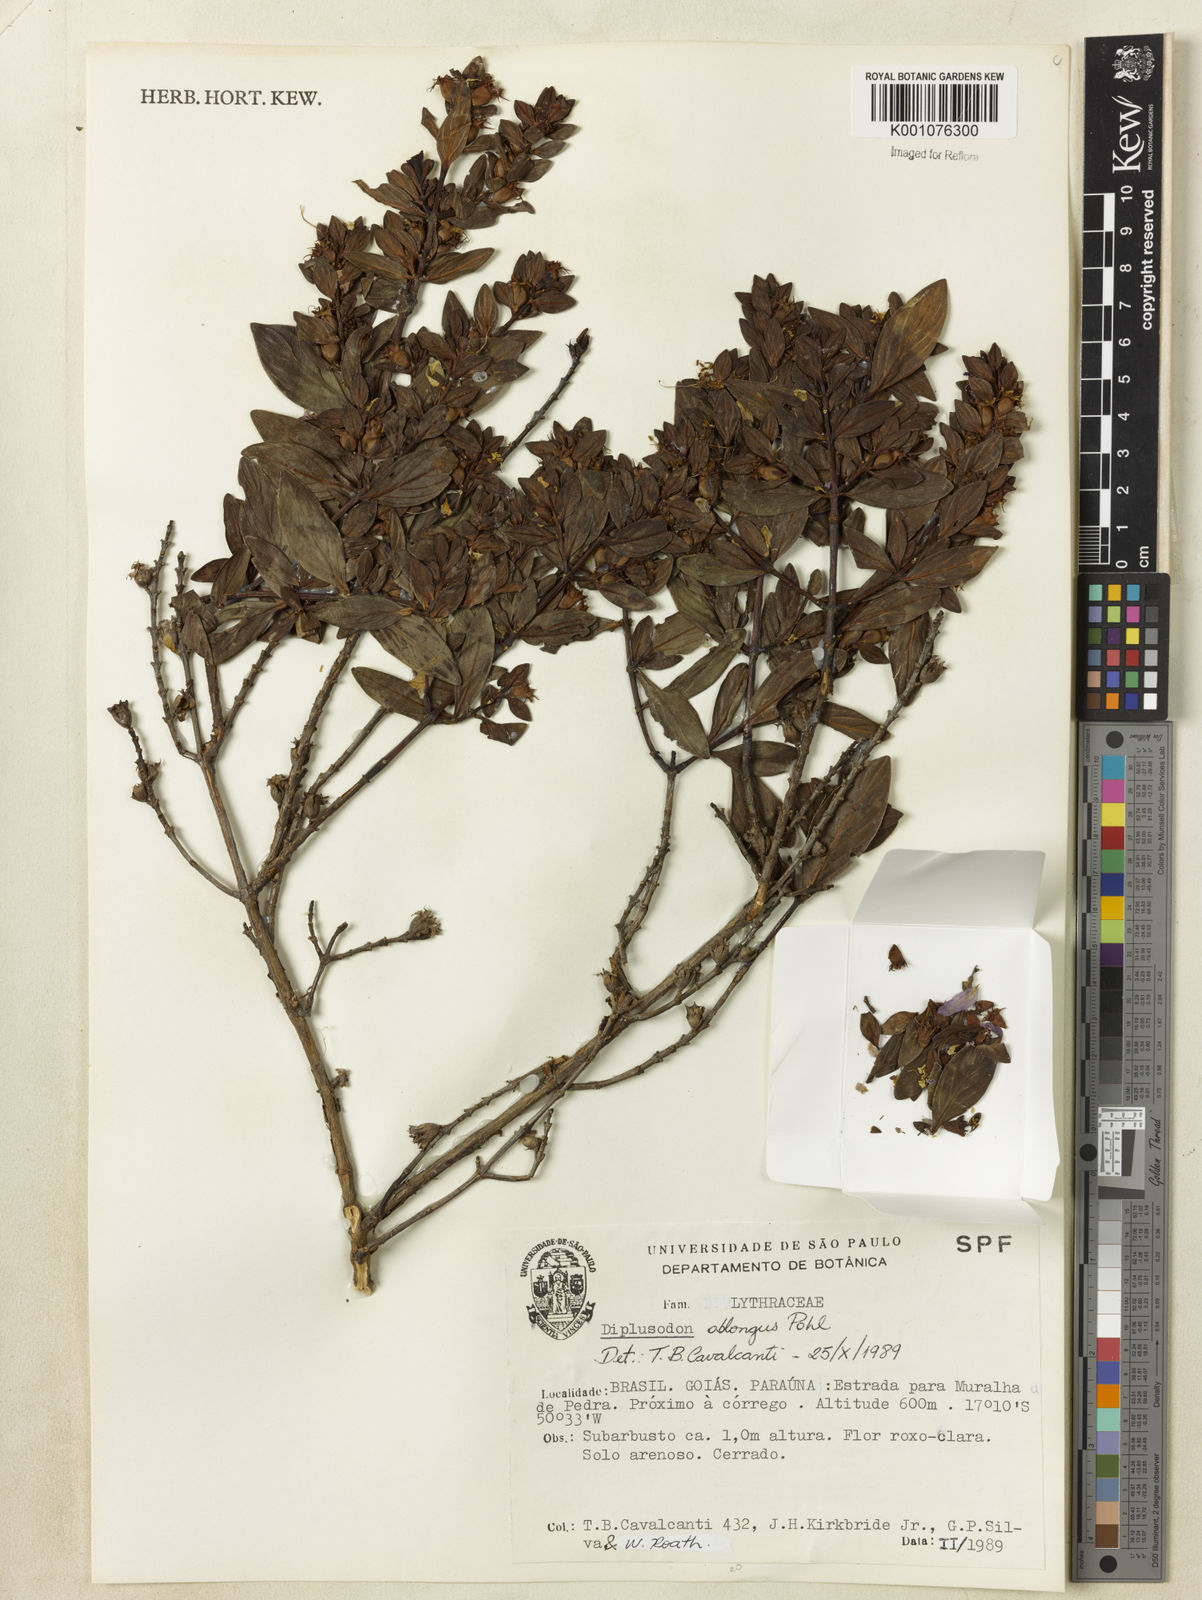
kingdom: Plantae
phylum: Tracheophyta
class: Magnoliopsida
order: Myrtales
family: Lythraceae
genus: Diplusodon
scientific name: Diplusodon oblongus
